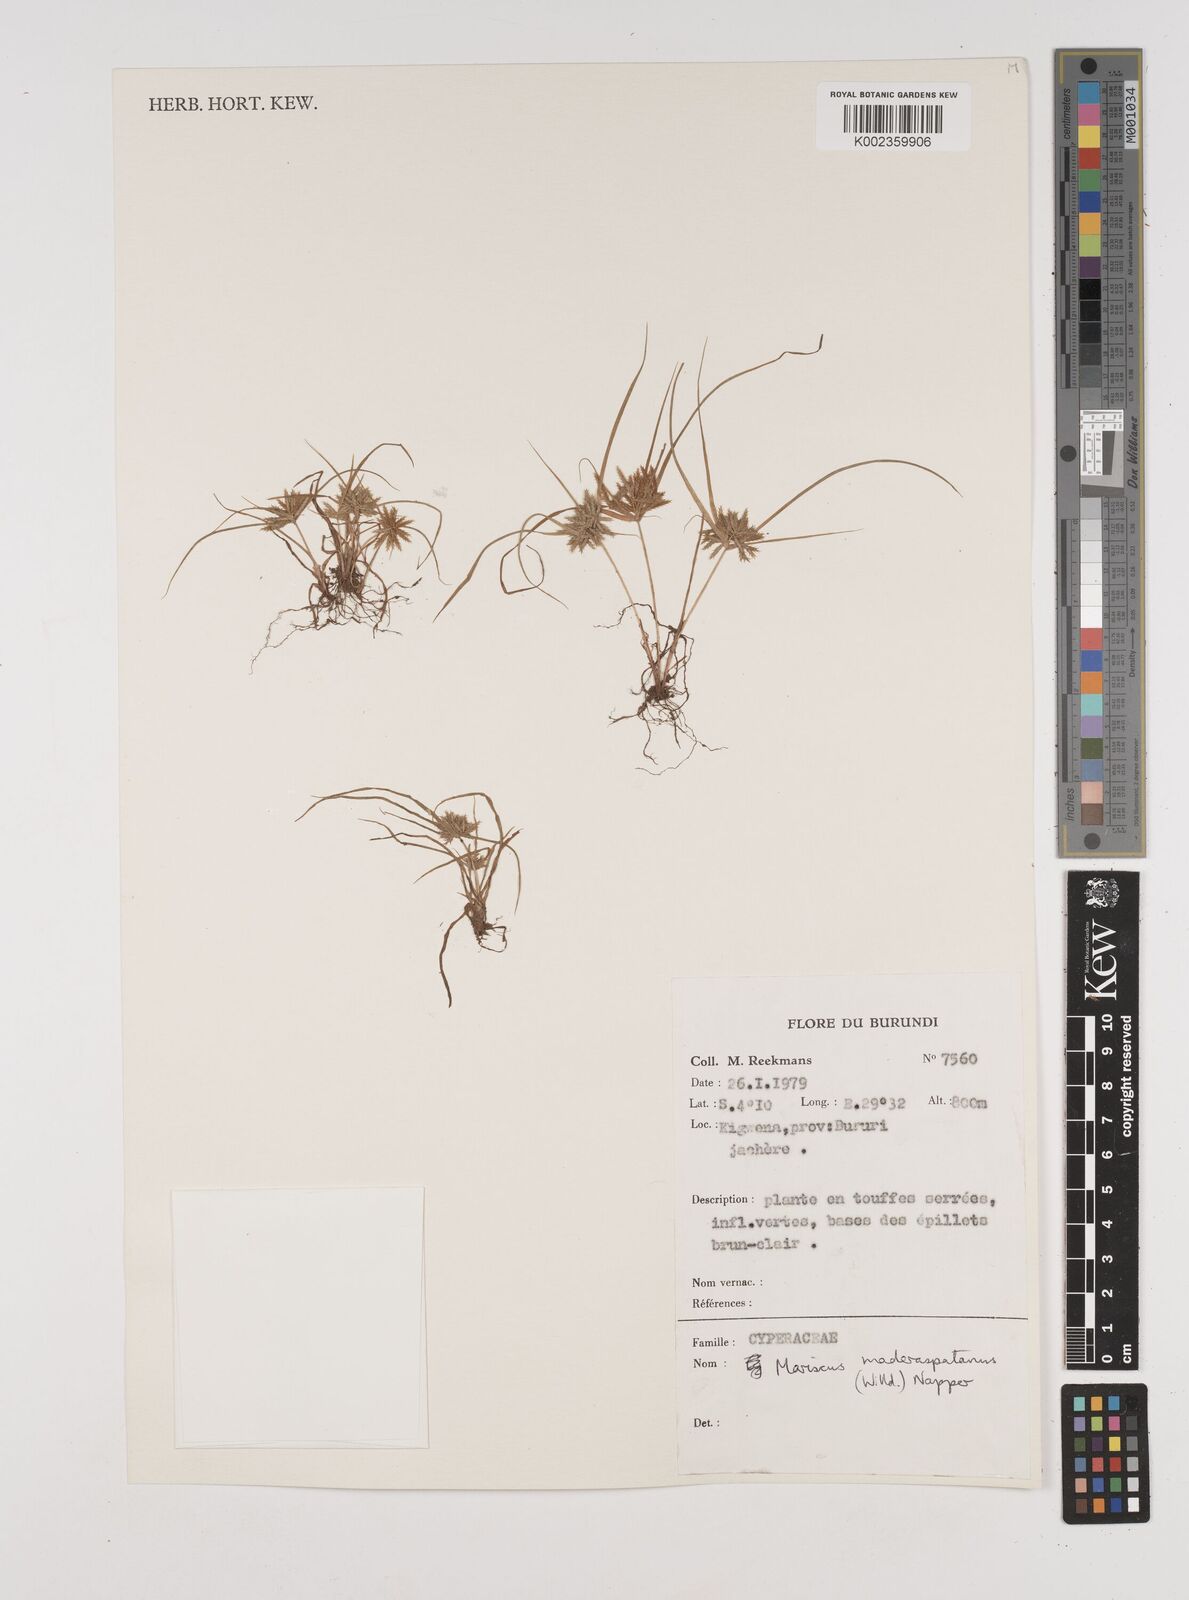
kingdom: Plantae
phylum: Tracheophyta
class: Liliopsida
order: Poales
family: Cyperaceae
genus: Cyperus
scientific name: Cyperus maderaspatanus
